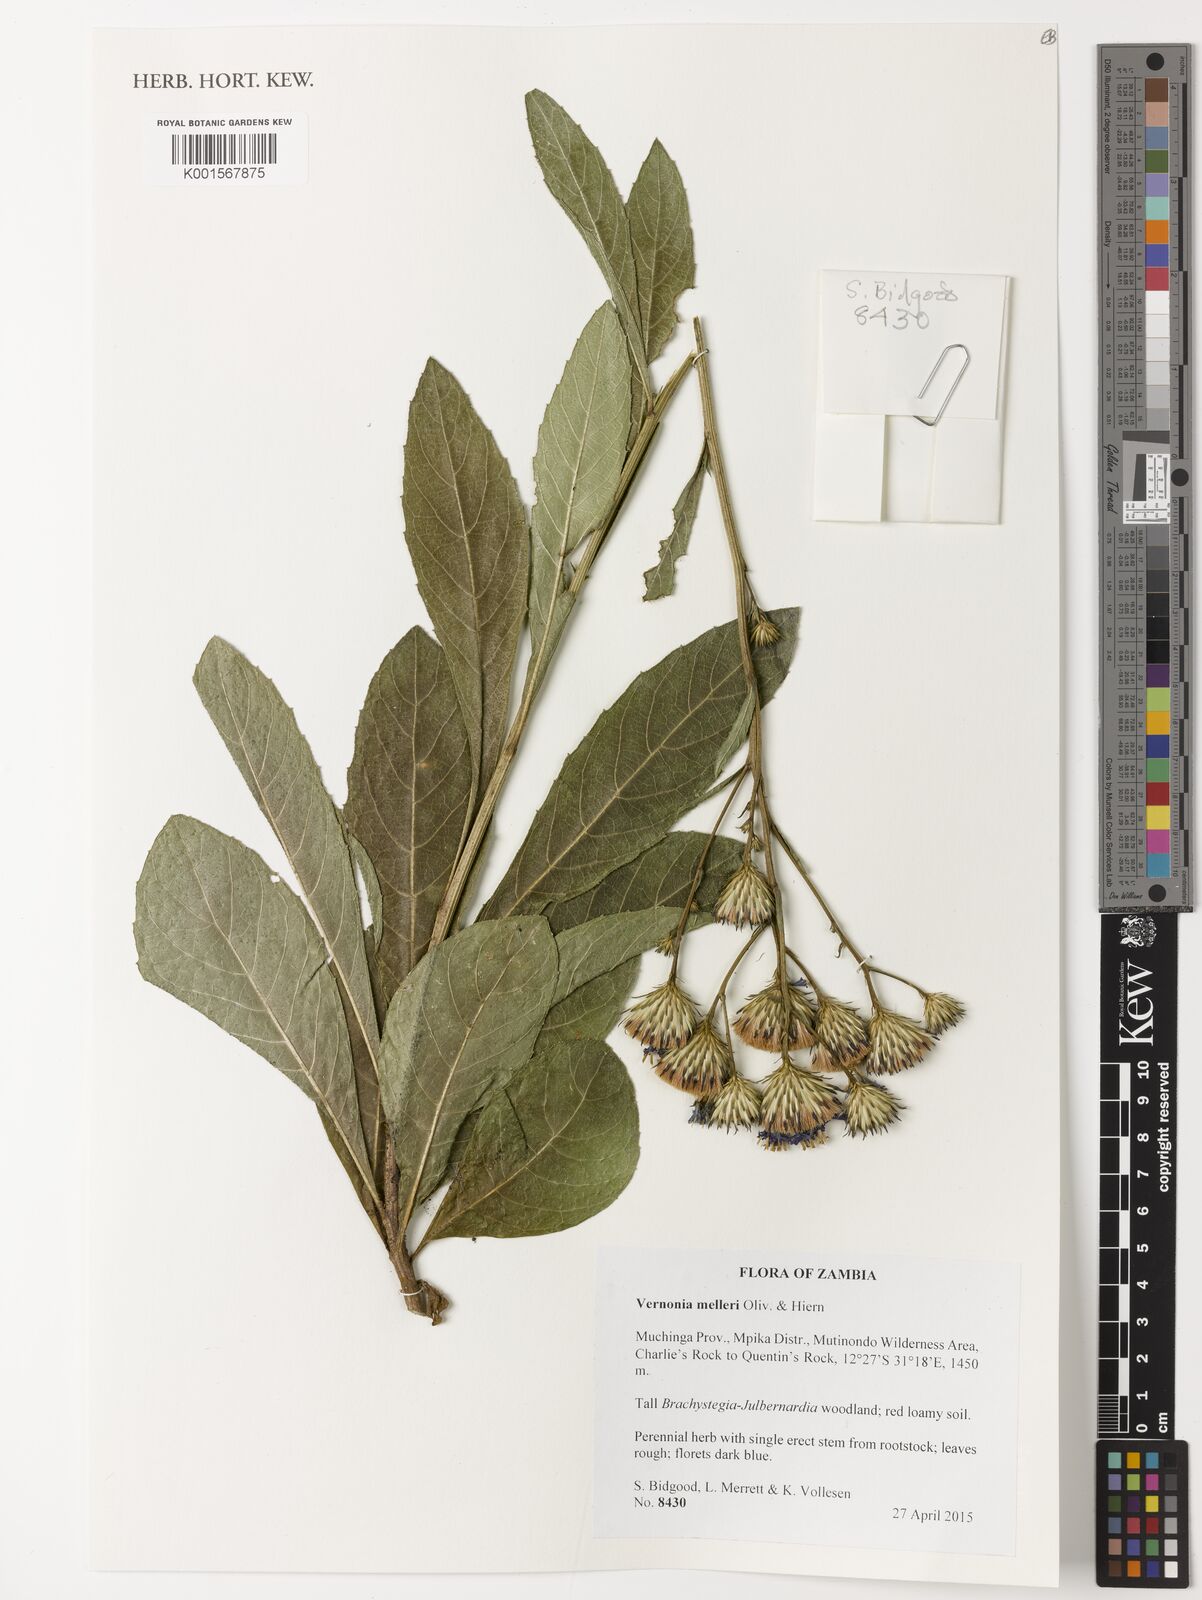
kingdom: Plantae
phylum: Tracheophyta
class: Magnoliopsida
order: Asterales
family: Asteraceae
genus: Linzia
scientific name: Linzia melleri
